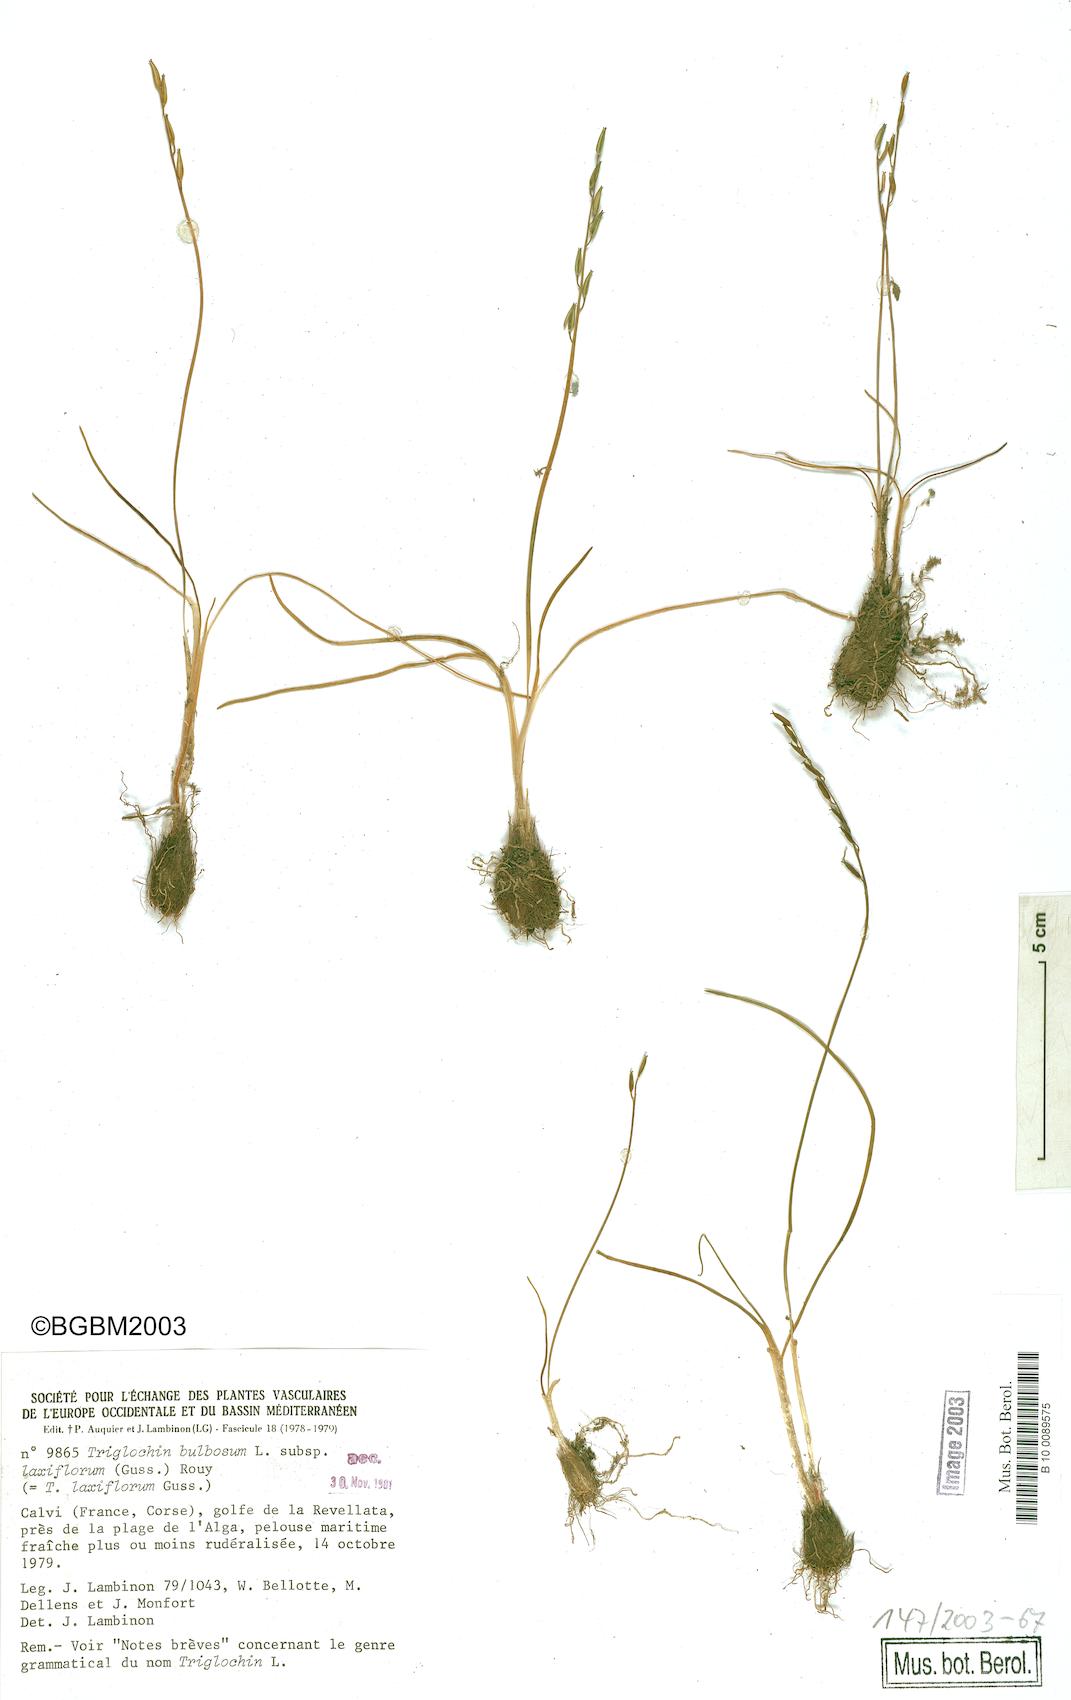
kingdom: Plantae
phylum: Tracheophyta
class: Liliopsida
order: Alismatales
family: Juncaginaceae
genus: Triglochin
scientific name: Triglochin laxiflora
